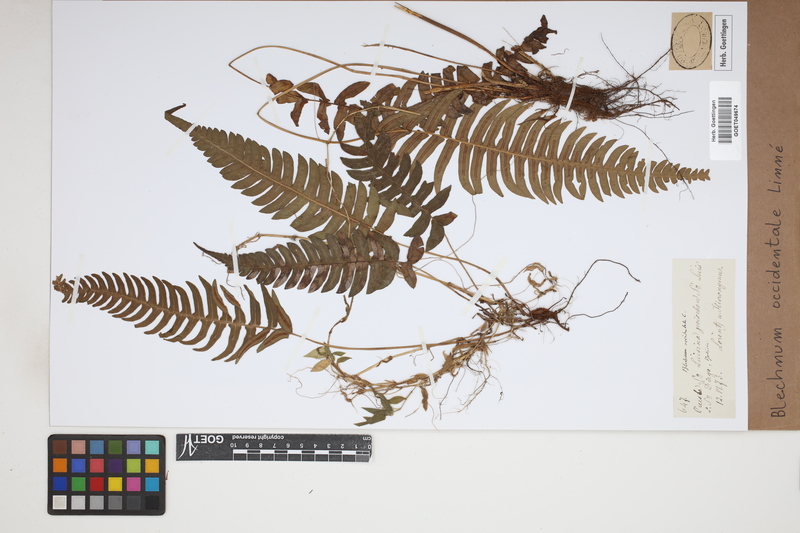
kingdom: Plantae
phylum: Tracheophyta
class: Polypodiopsida
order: Polypodiales
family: Blechnaceae
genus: Blechnum
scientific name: Blechnum occidentale
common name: Hammock fern
